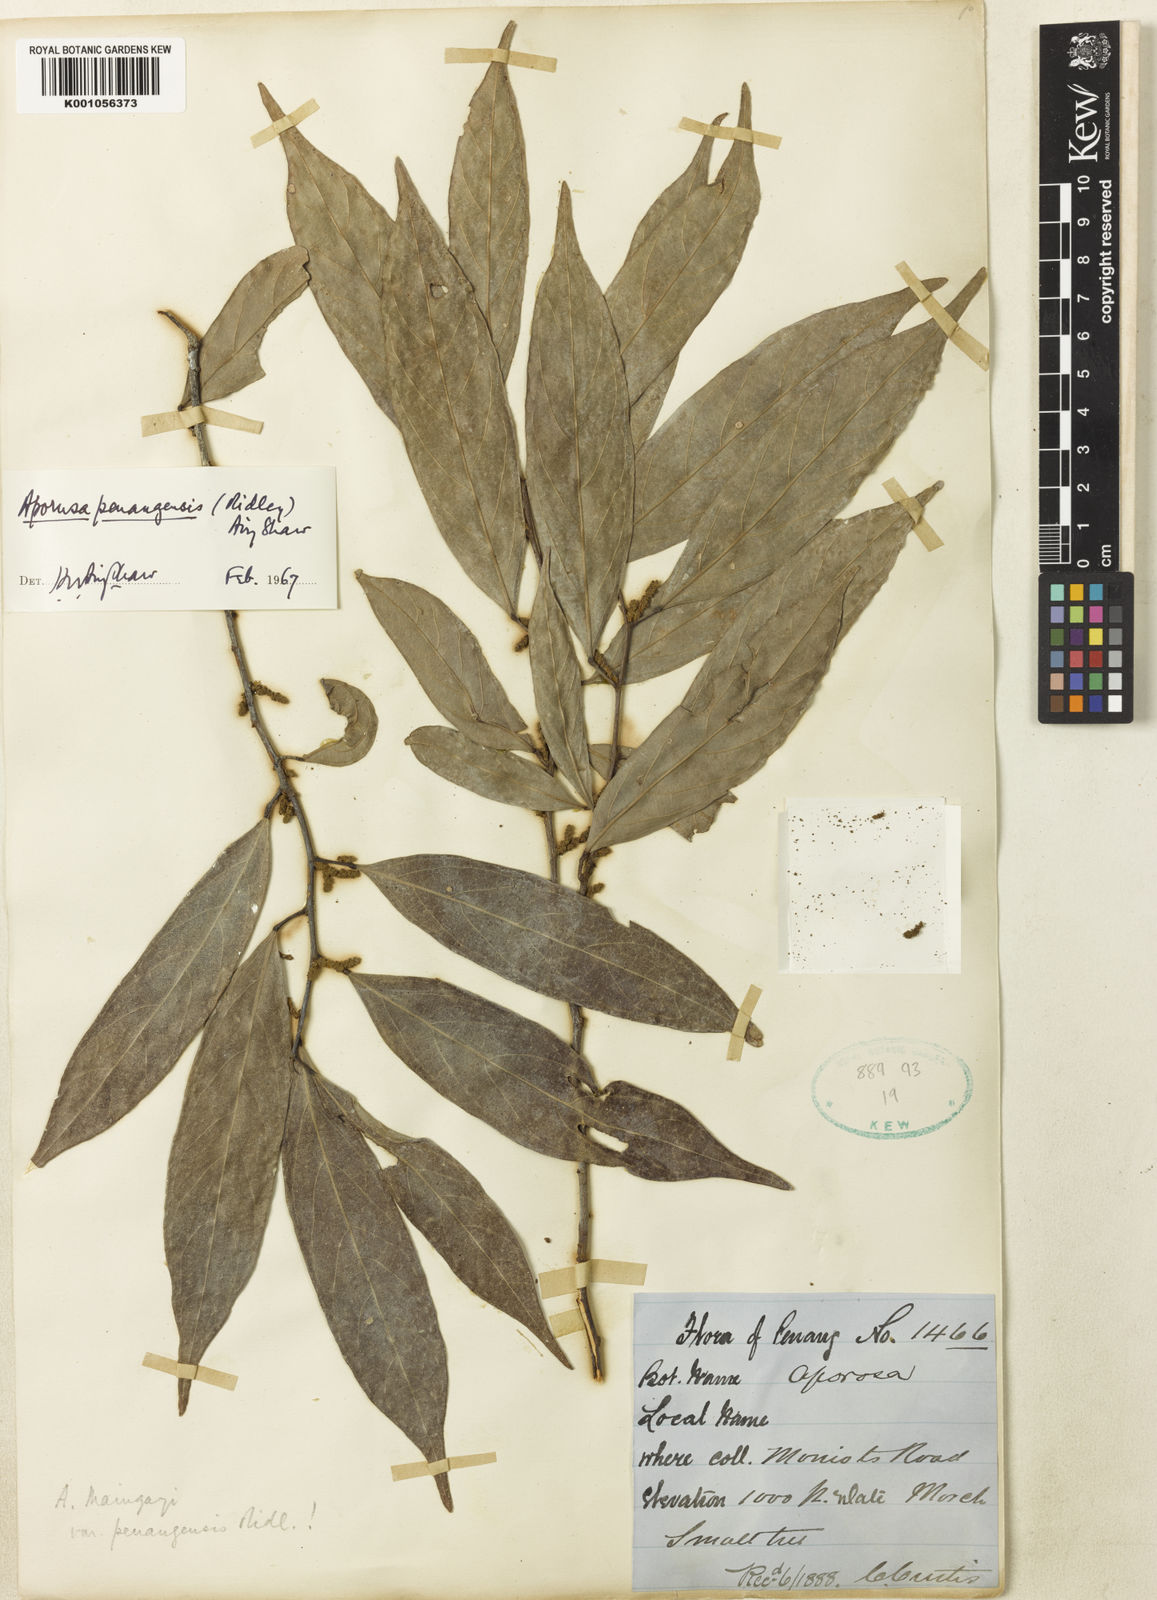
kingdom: Plantae
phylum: Tracheophyta
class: Magnoliopsida
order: Malpighiales
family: Phyllanthaceae
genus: Aporosa
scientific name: Aporosa penangensis
